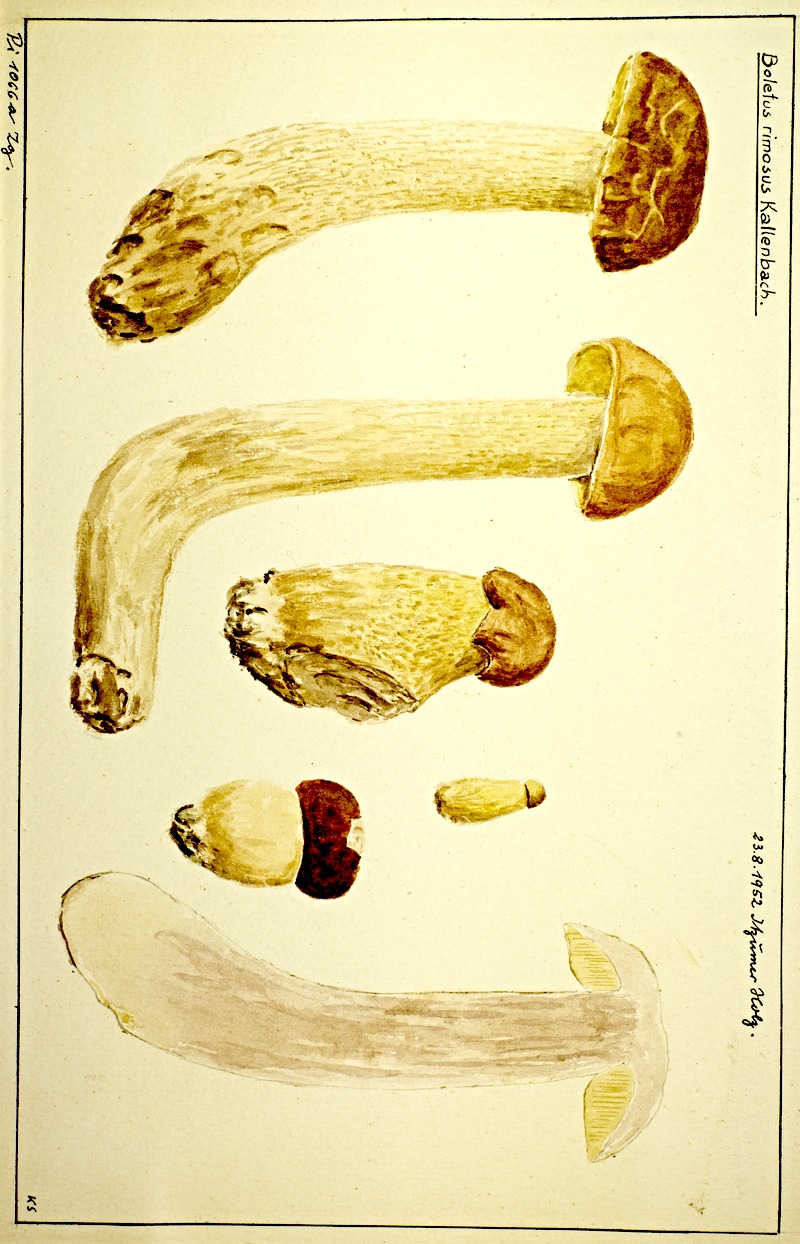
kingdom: Fungi
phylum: Basidiomycota
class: Agaricomycetes
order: Boletales
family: Boletaceae
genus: Leccinellum
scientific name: Leccinellum crocipodium
